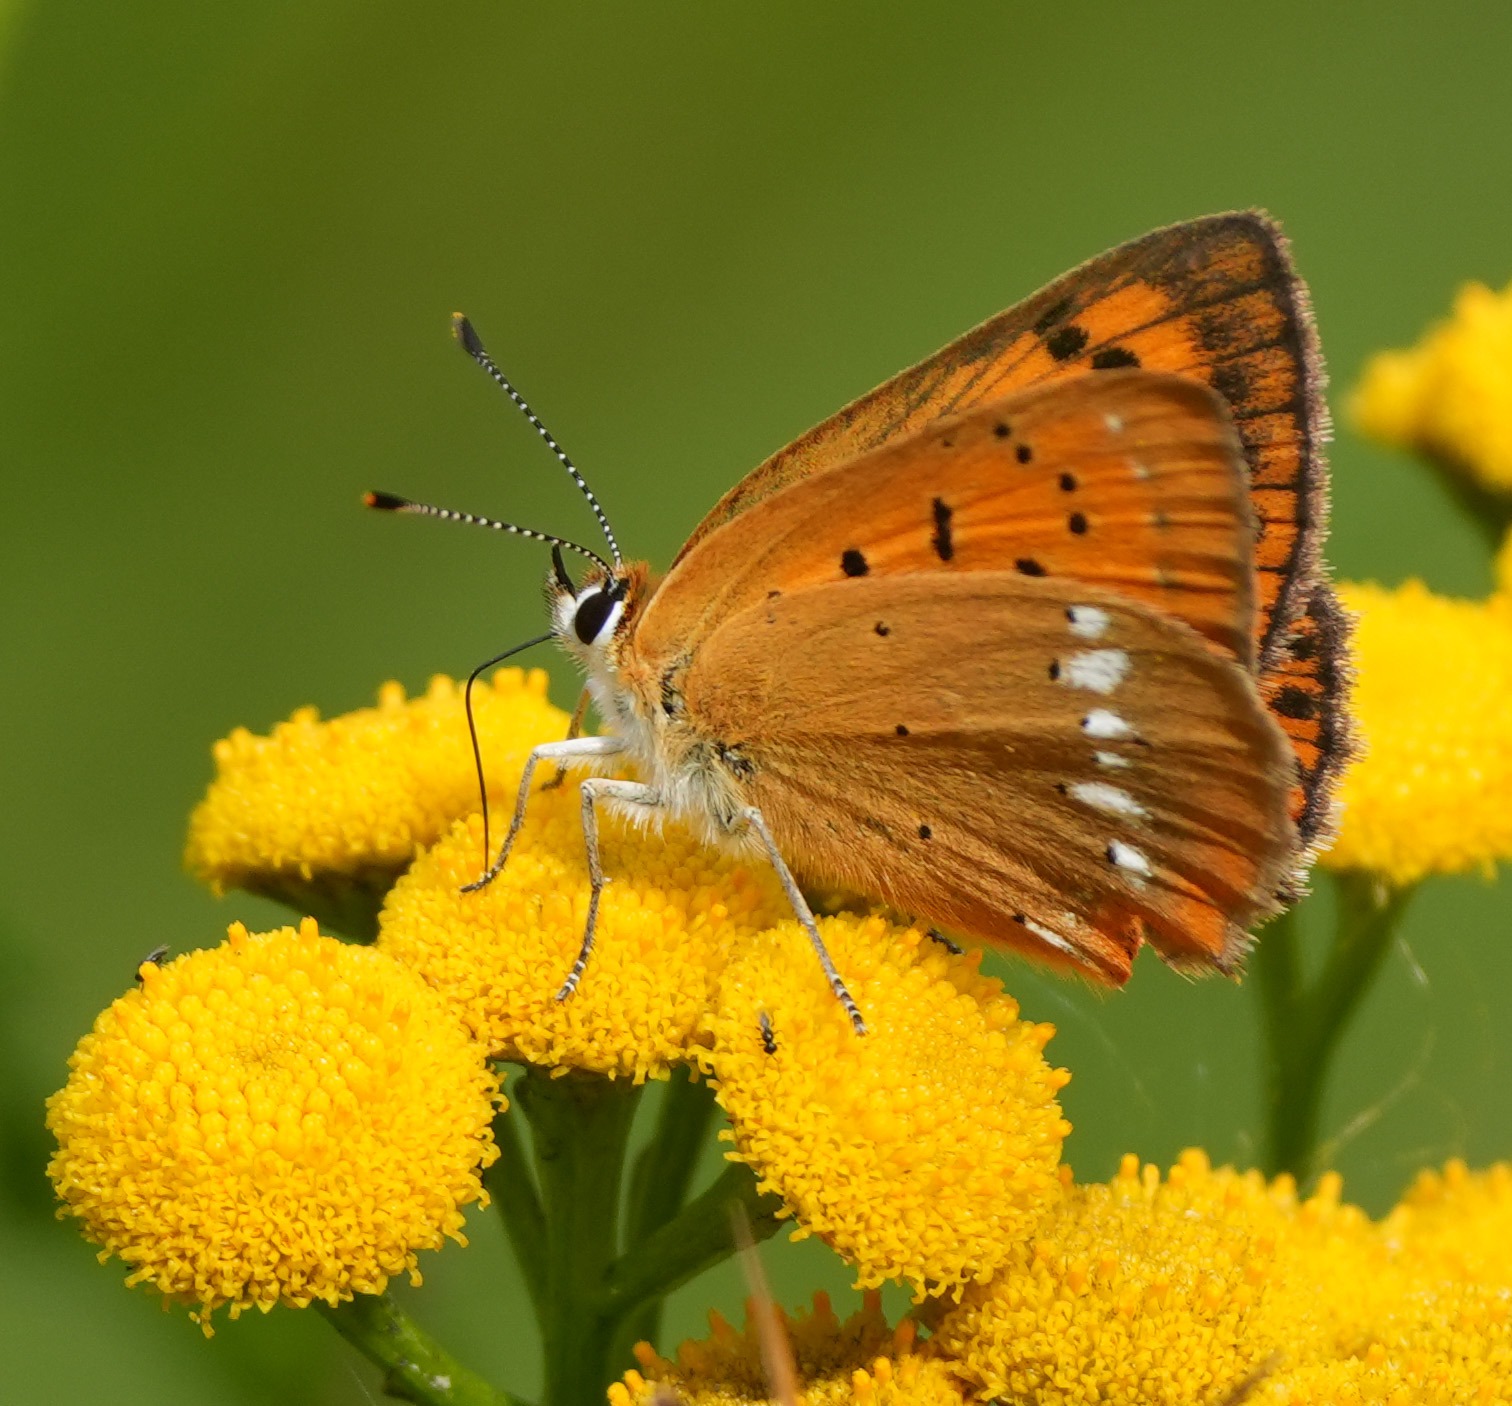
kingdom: Animalia
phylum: Arthropoda
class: Insecta
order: Lepidoptera
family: Lycaenidae
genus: Lycaena
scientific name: Lycaena virgaureae
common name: Dukatsommerfugl
